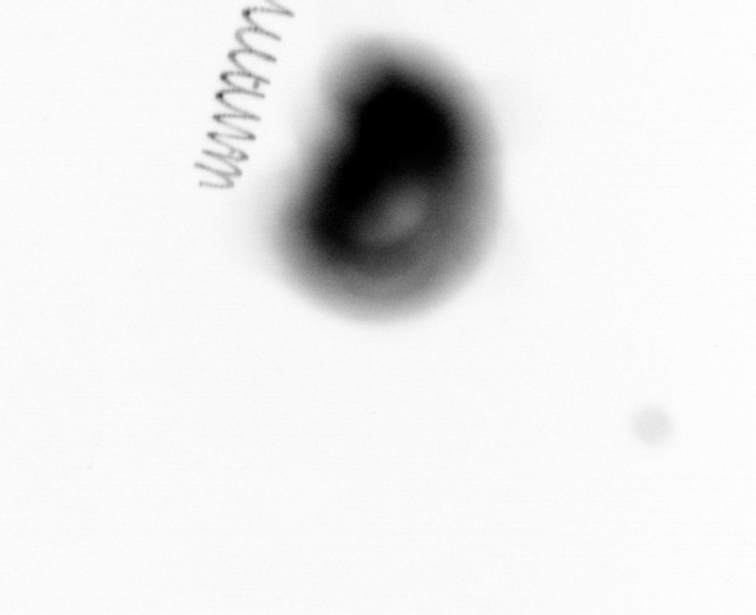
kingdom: Chromista
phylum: Ochrophyta
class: Bacillariophyceae
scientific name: Bacillariophyceae
